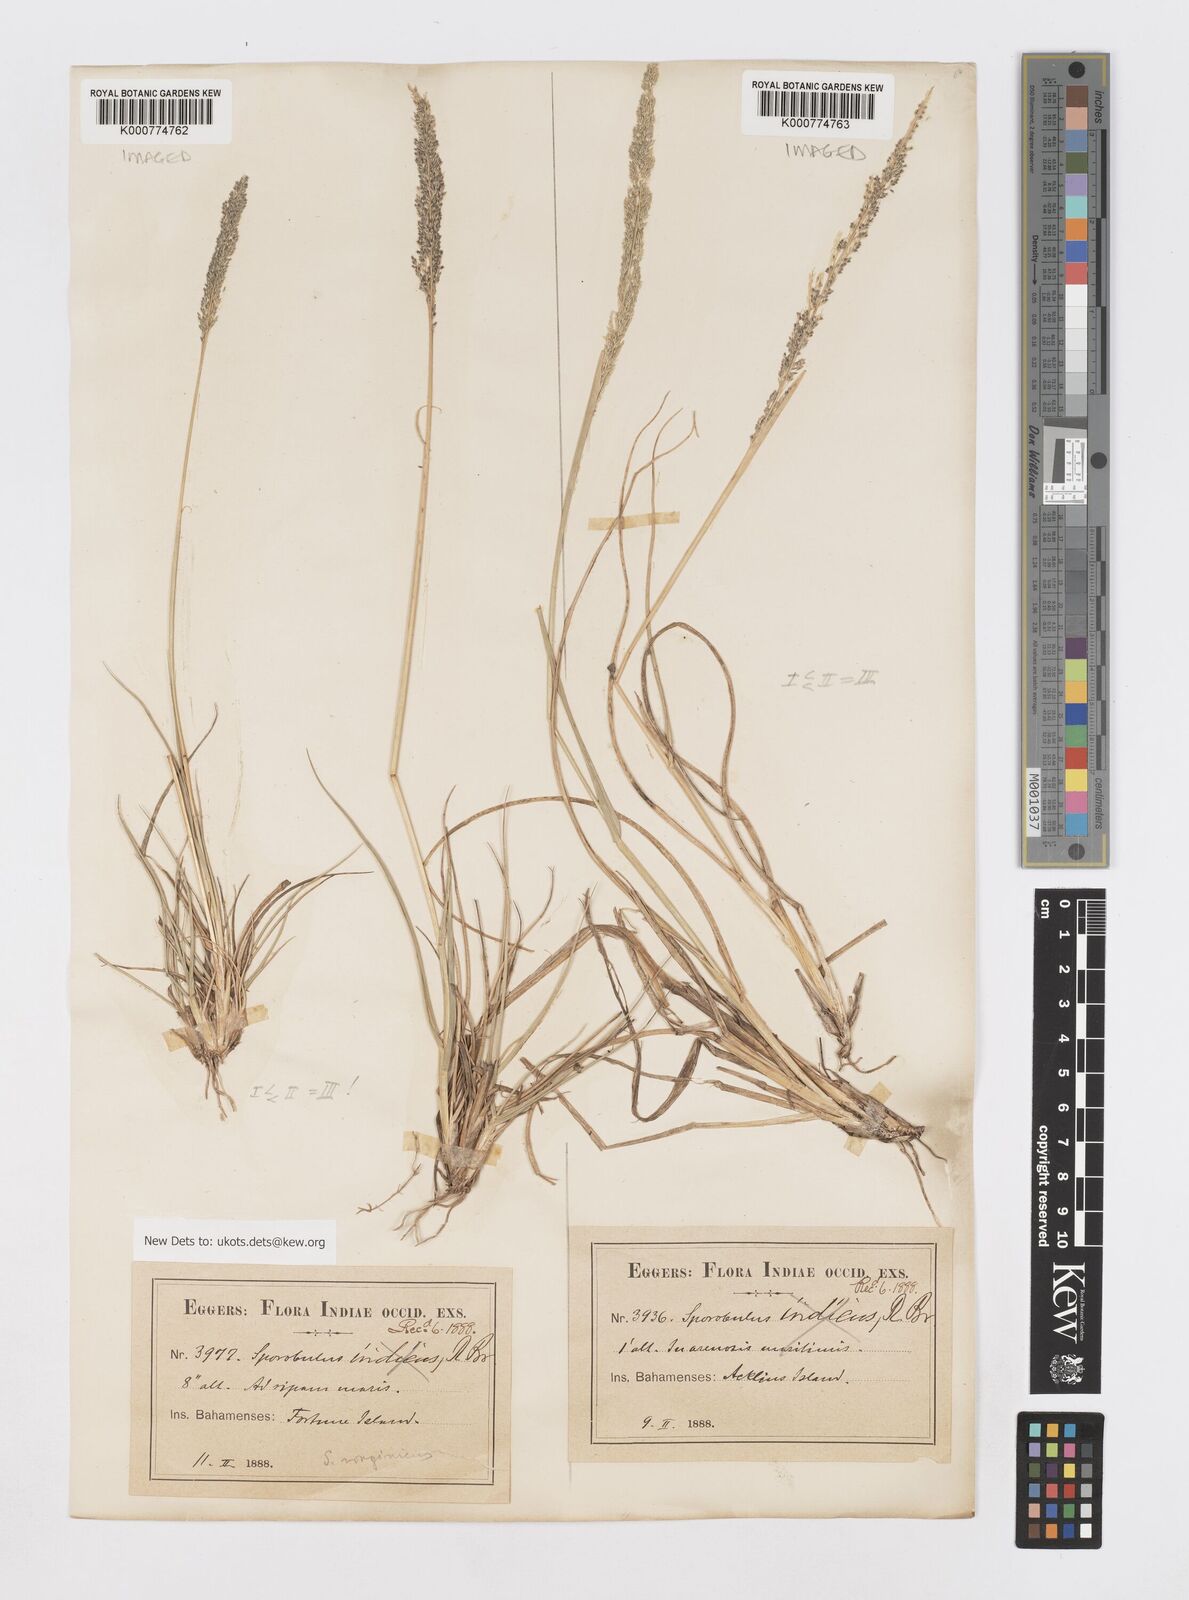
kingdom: Plantae
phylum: Tracheophyta
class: Liliopsida
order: Poales
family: Poaceae
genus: Sporobolus
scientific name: Sporobolus domingensis
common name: Coral dropseed
